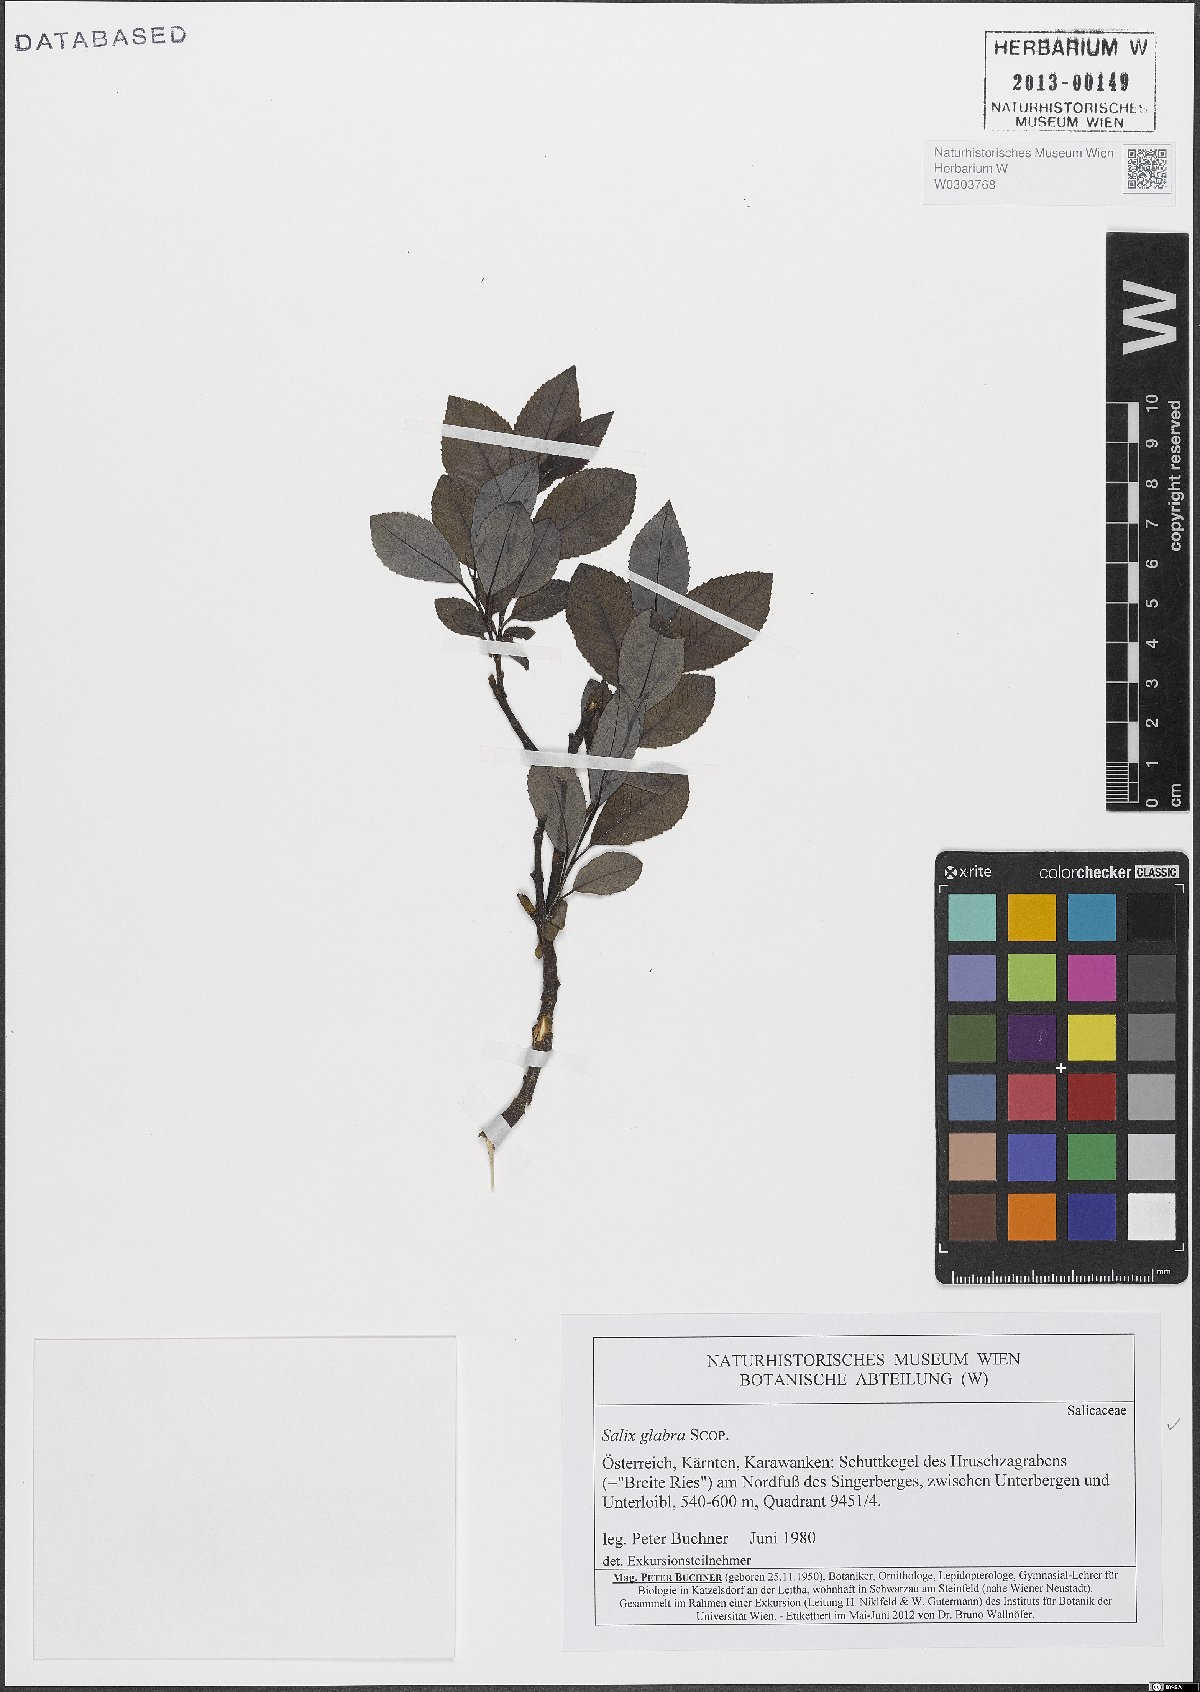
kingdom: Plantae
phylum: Tracheophyta
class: Magnoliopsida
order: Malpighiales
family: Salicaceae
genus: Salix
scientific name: Salix glabra
